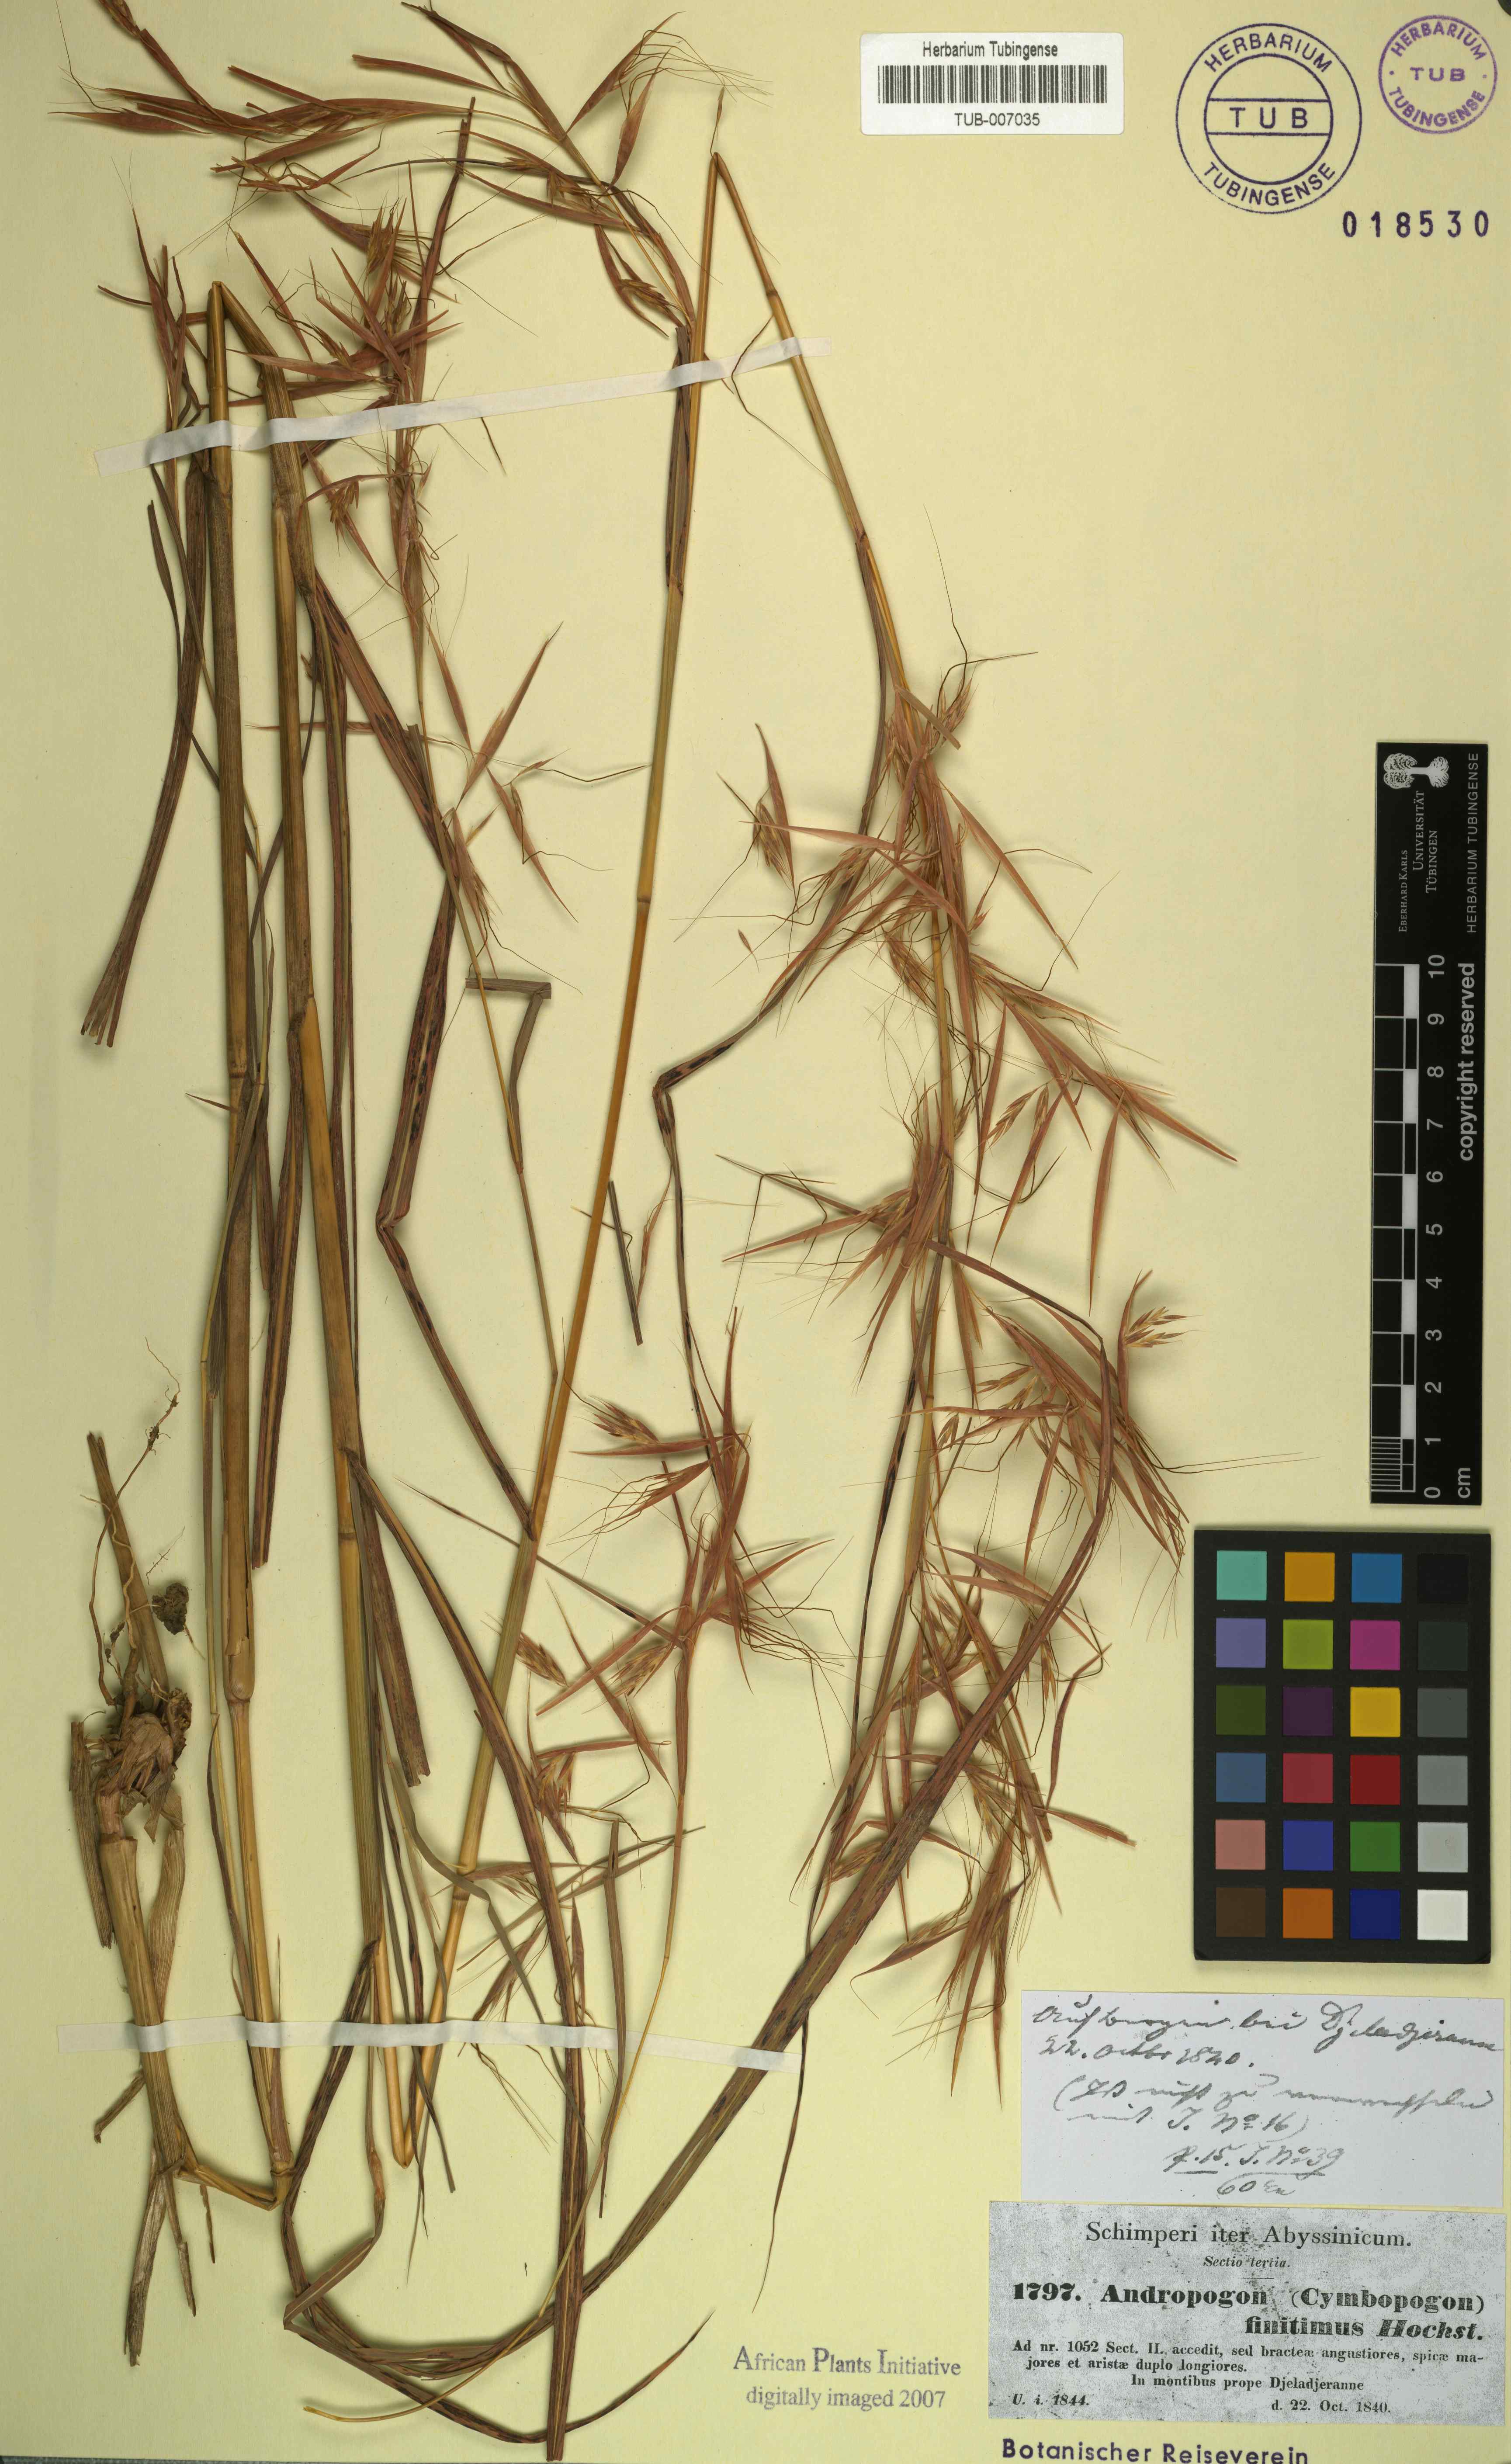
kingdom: Plantae
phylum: Tracheophyta
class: Liliopsida
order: Poales
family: Poaceae
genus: Hyparrhenia
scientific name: Hyparrhenia finitima
